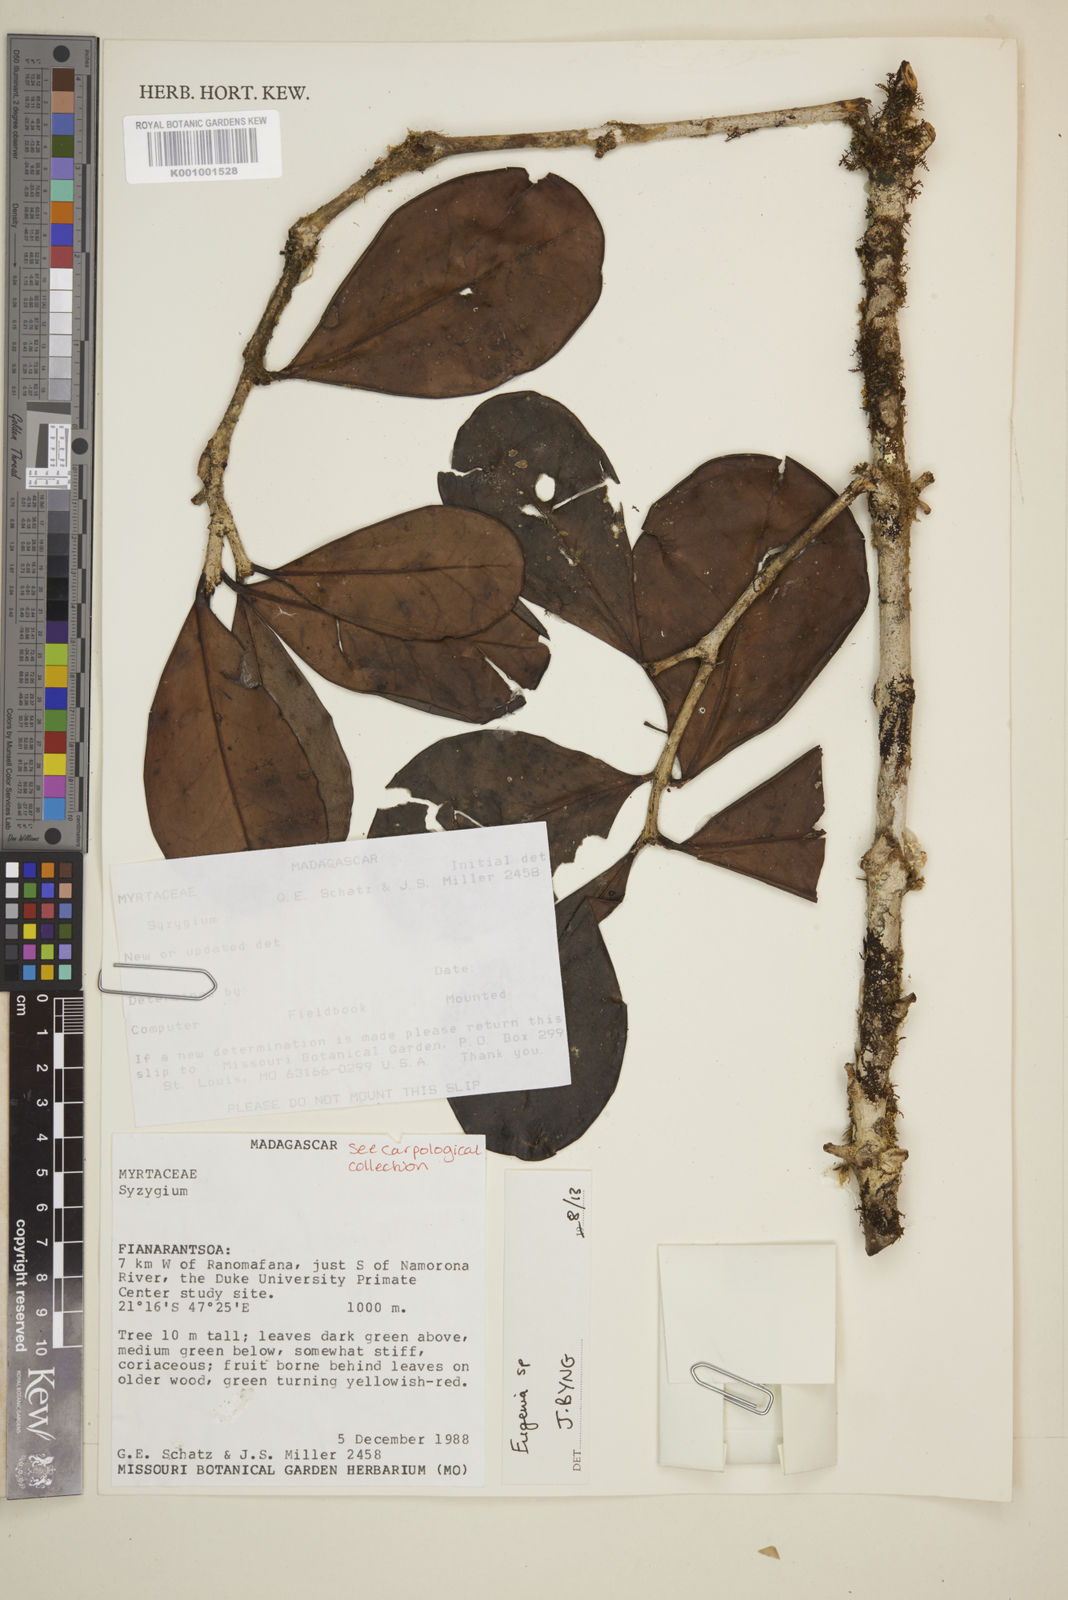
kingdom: Plantae
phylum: Tracheophyta
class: Magnoliopsida
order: Myrtales
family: Myrtaceae
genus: Eugenia
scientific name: Eugenia
